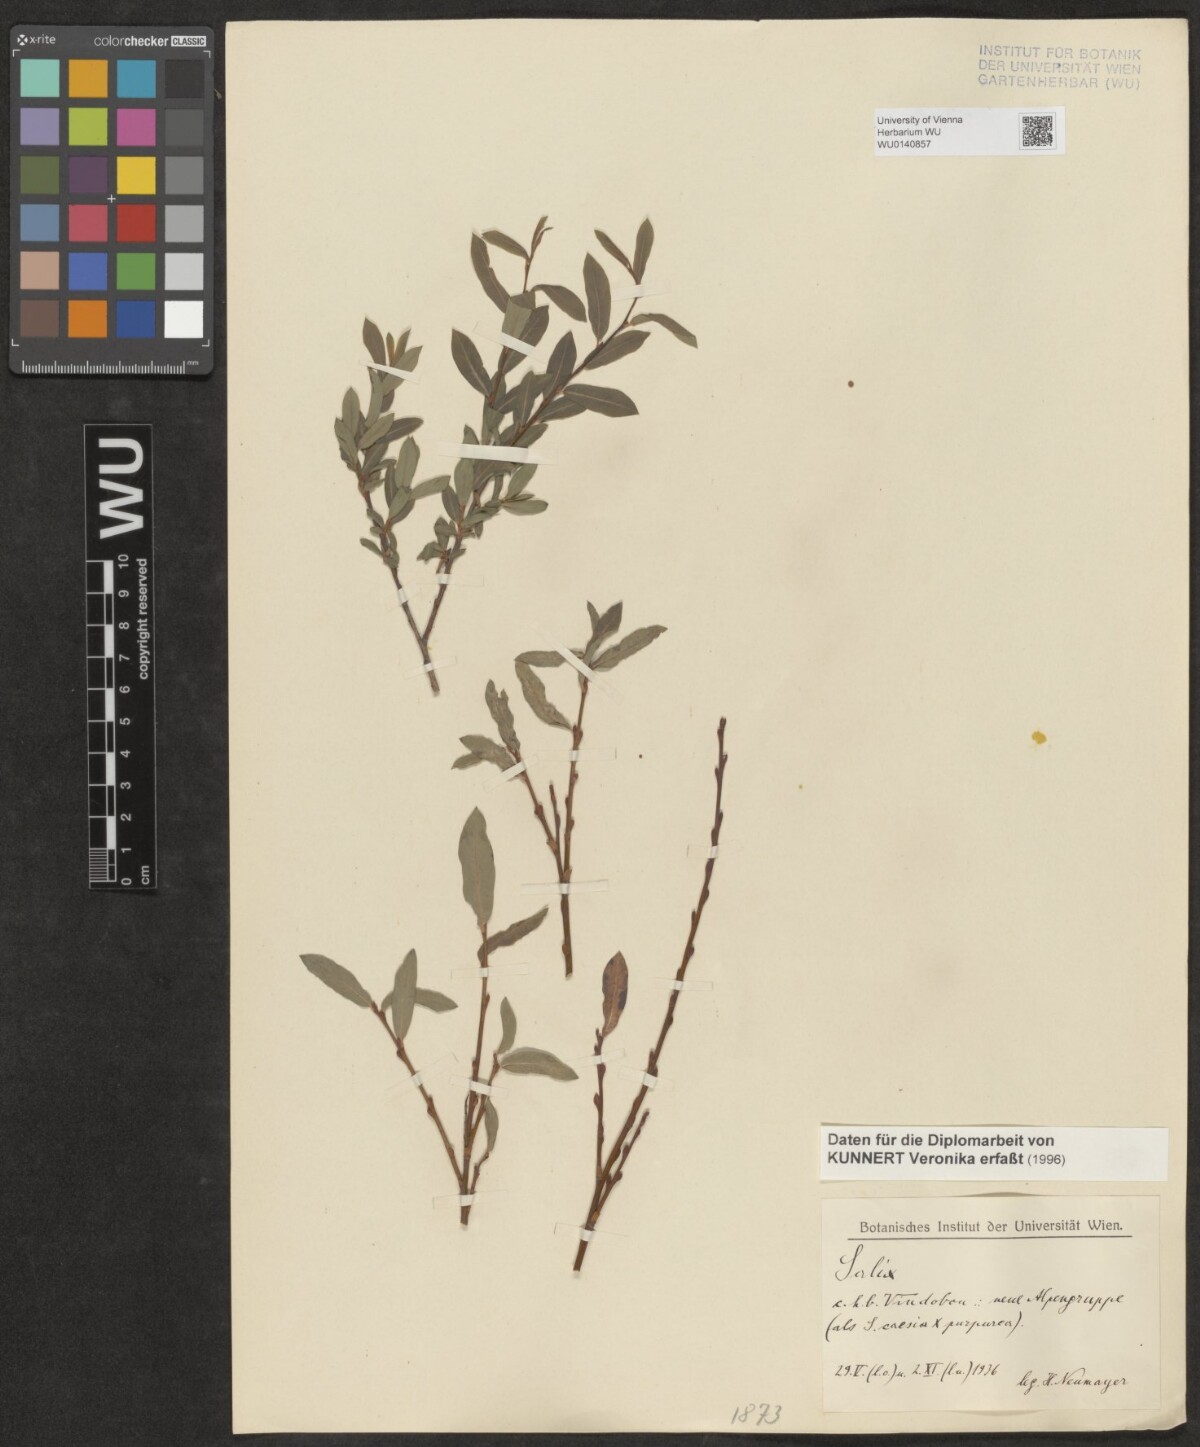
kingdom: Plantae
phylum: Tracheophyta
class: Magnoliopsida
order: Malpighiales
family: Salicaceae
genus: Salix
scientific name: Salix
